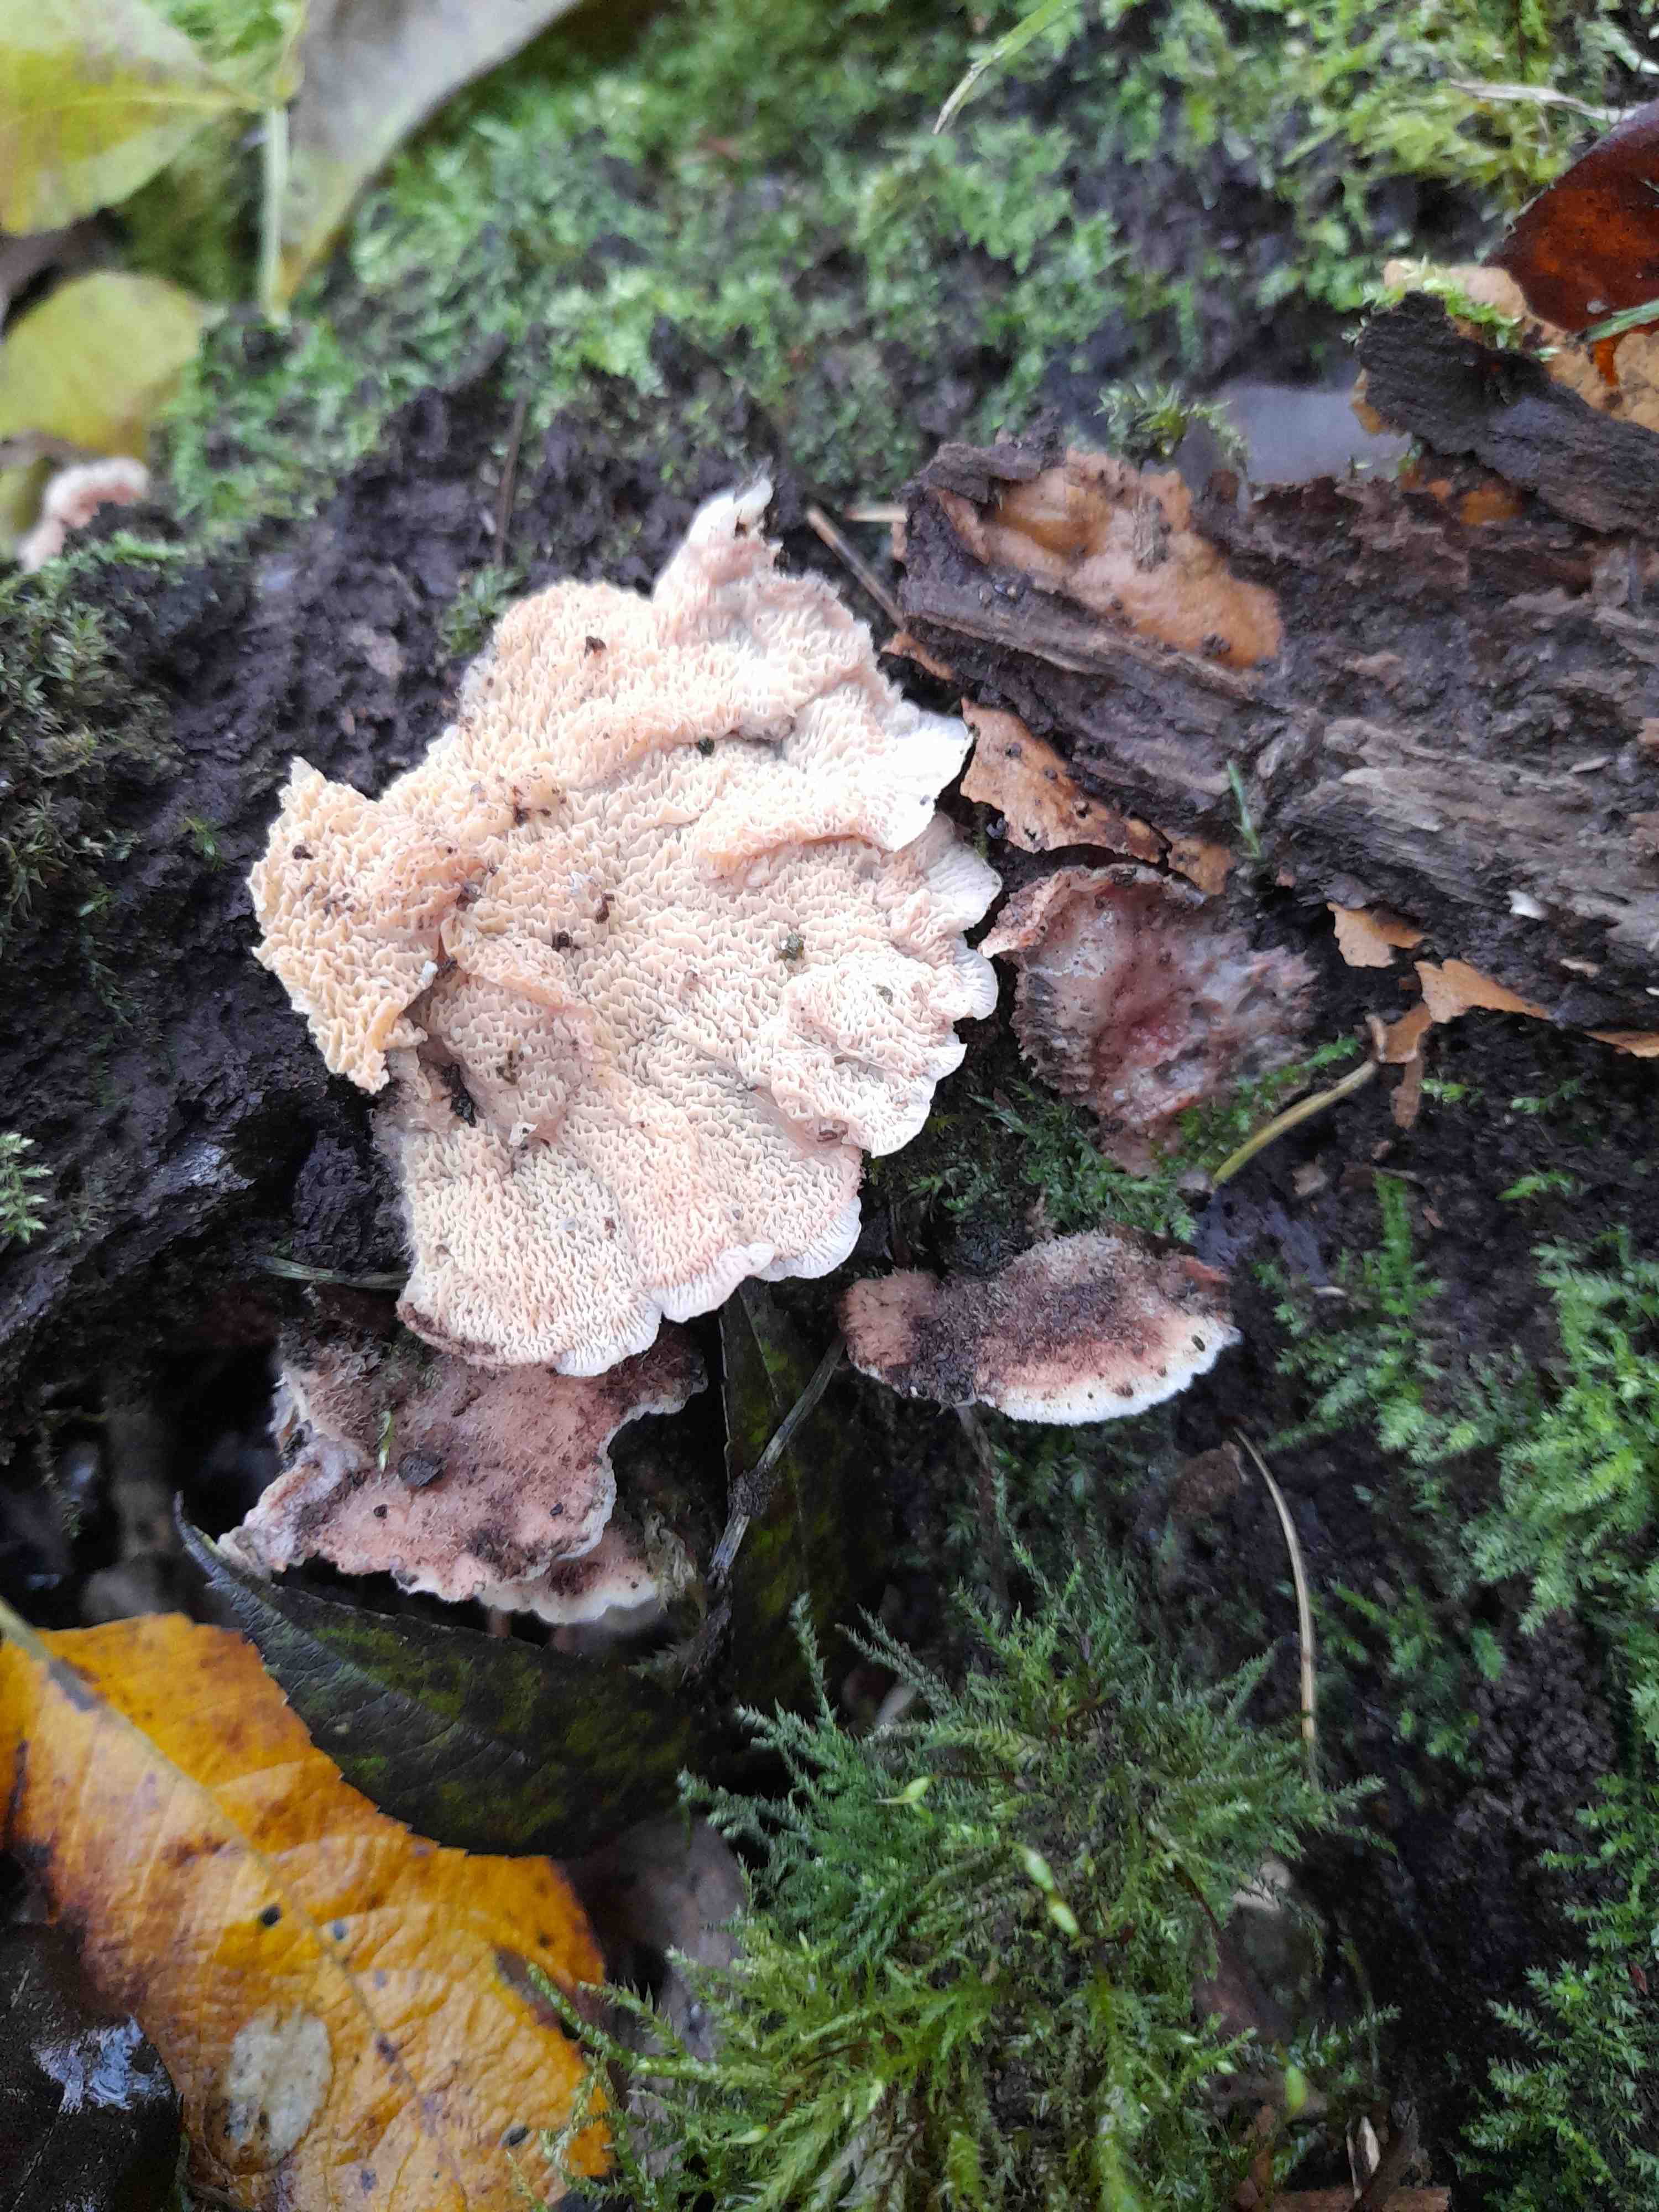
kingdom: Fungi
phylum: Basidiomycota
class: Agaricomycetes
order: Polyporales
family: Meruliaceae
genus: Phlebia
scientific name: Phlebia tremellosa
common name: bævrende åresvamp
